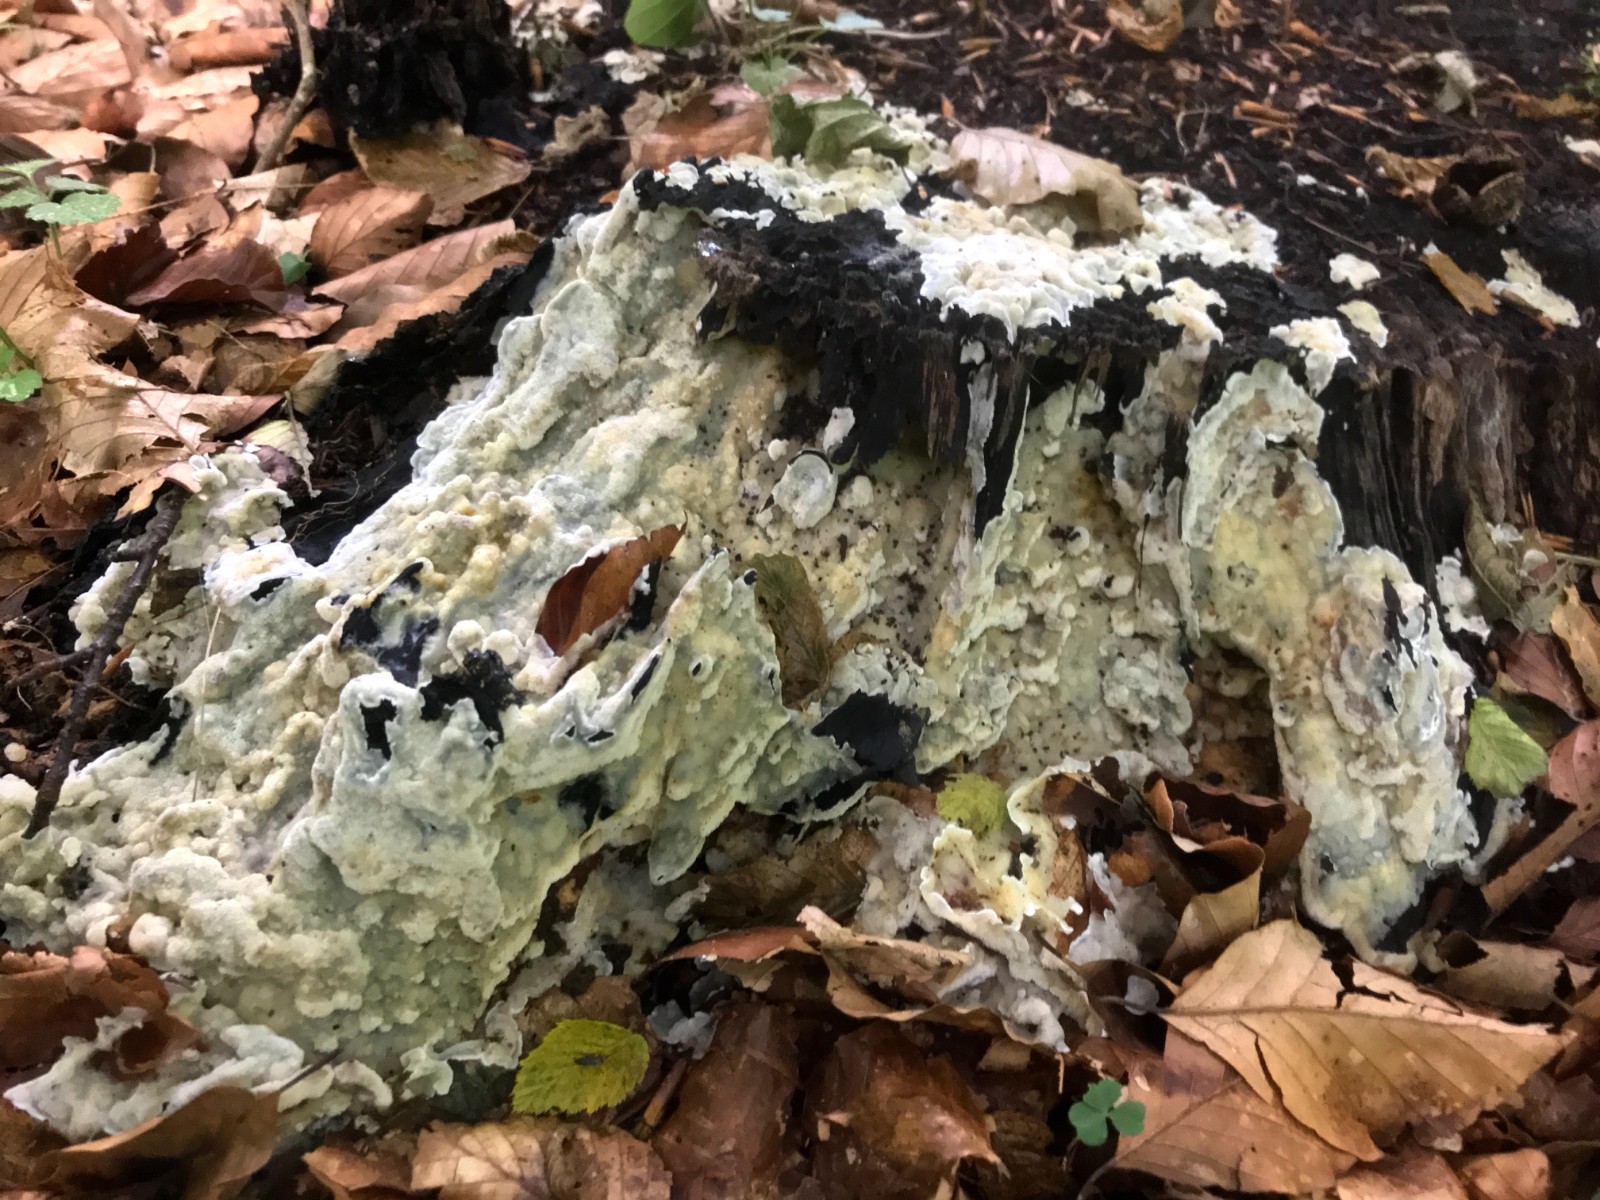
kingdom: Fungi
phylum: Basidiomycota
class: Agaricomycetes
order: Polyporales
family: Meruliaceae
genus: Physisporinus
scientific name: Physisporinus vitreus
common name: mastesvamp
